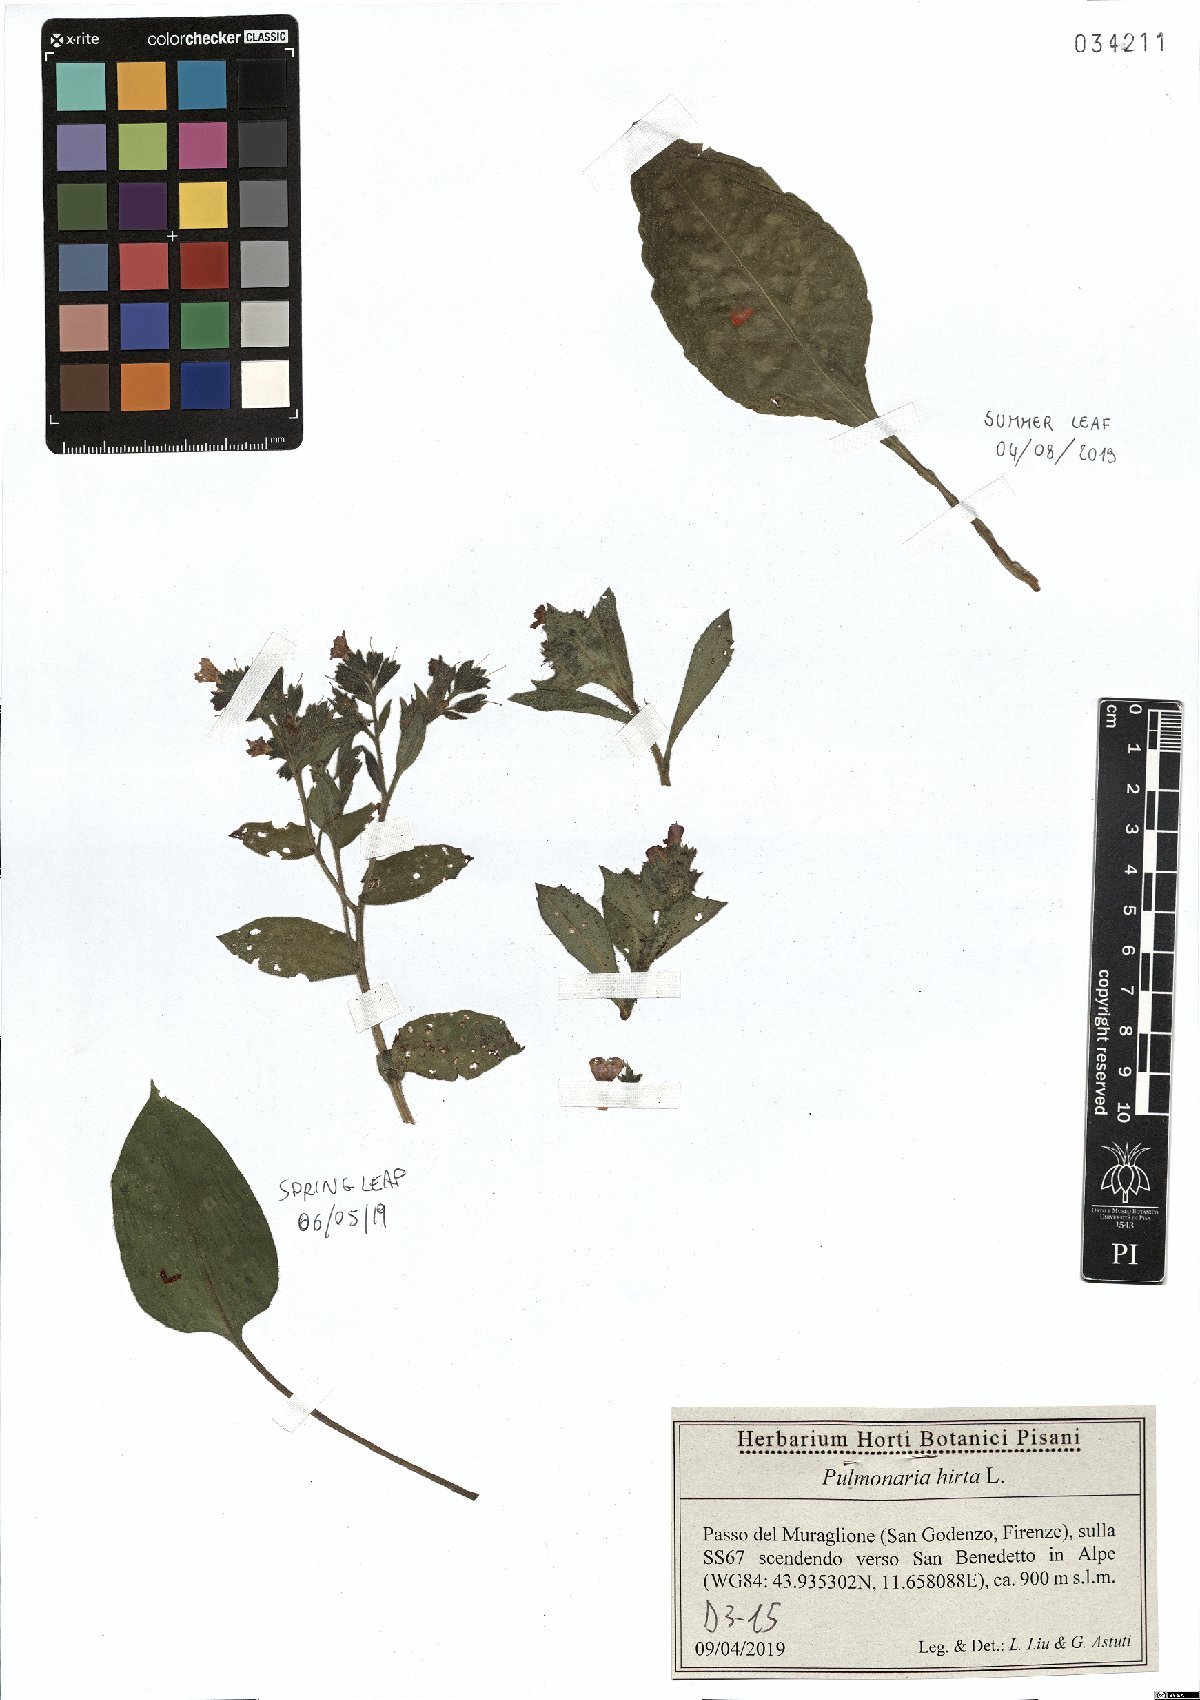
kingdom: Plantae
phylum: Tracheophyta
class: Magnoliopsida
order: Boraginales
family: Boraginaceae
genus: Pulmonaria
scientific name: Pulmonaria hirta
